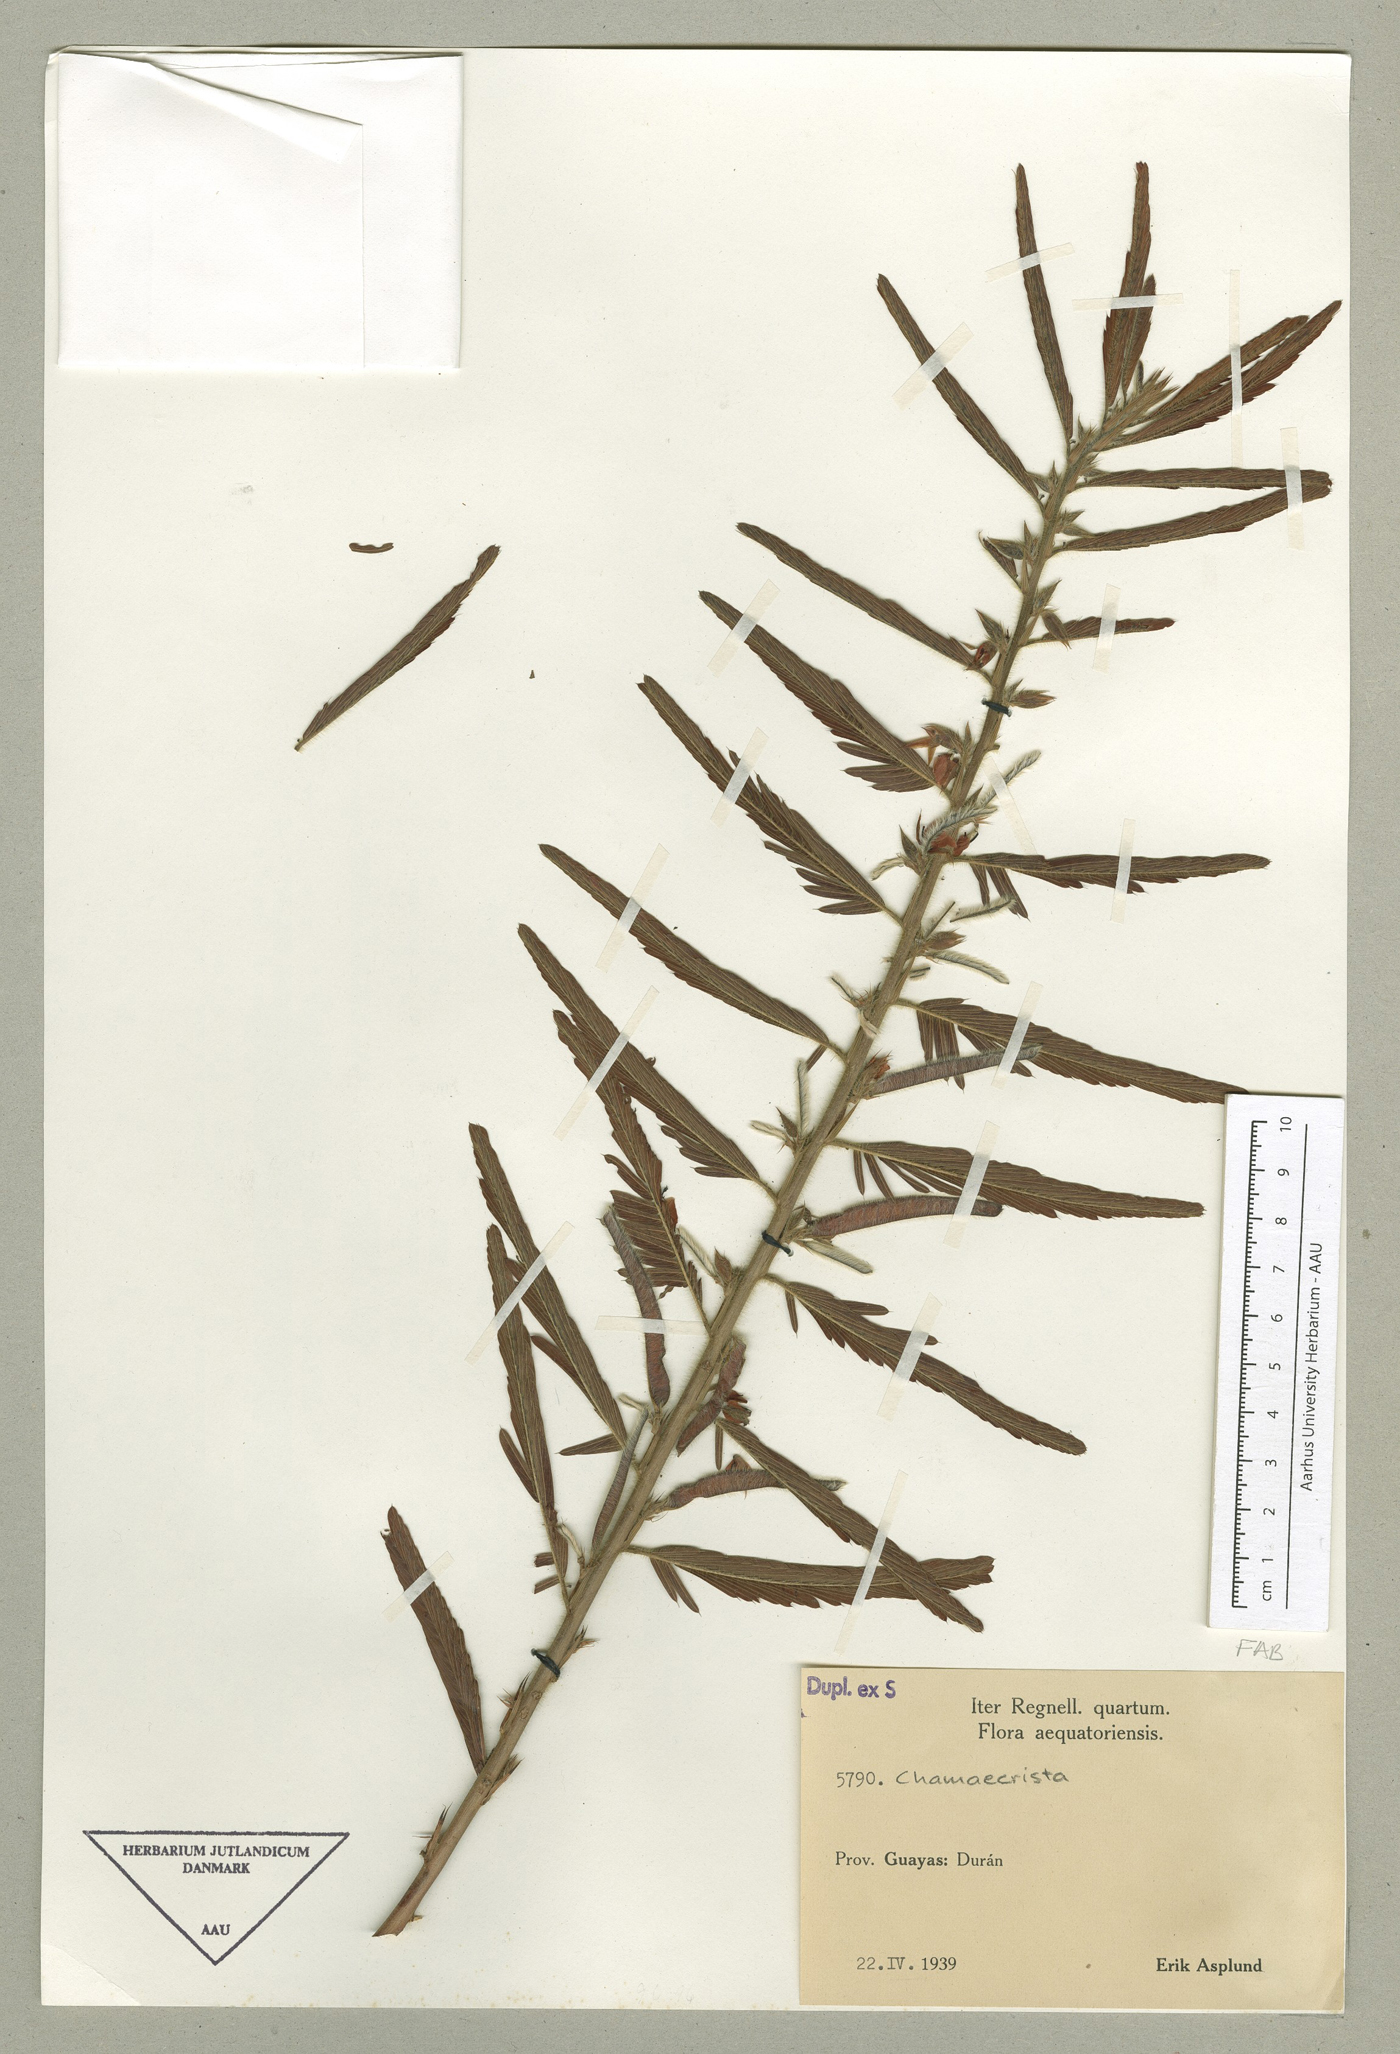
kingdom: Plantae
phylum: Tracheophyta
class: Magnoliopsida
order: Fabales
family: Fabaceae
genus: Chamaecrista
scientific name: Chamaecrista nictitans
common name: Sensitive cassia
